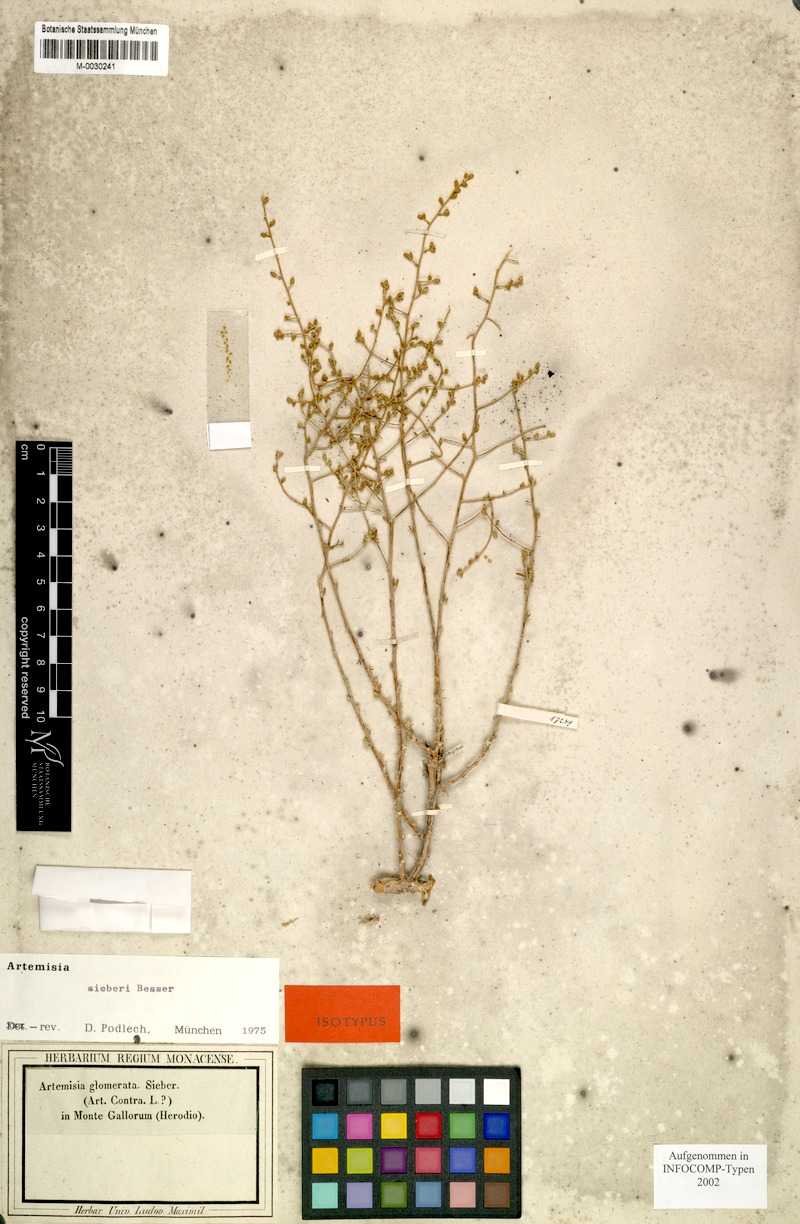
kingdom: Plantae
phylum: Tracheophyta
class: Magnoliopsida
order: Asterales
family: Asteraceae
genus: Artemisia
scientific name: Artemisia sieberi
